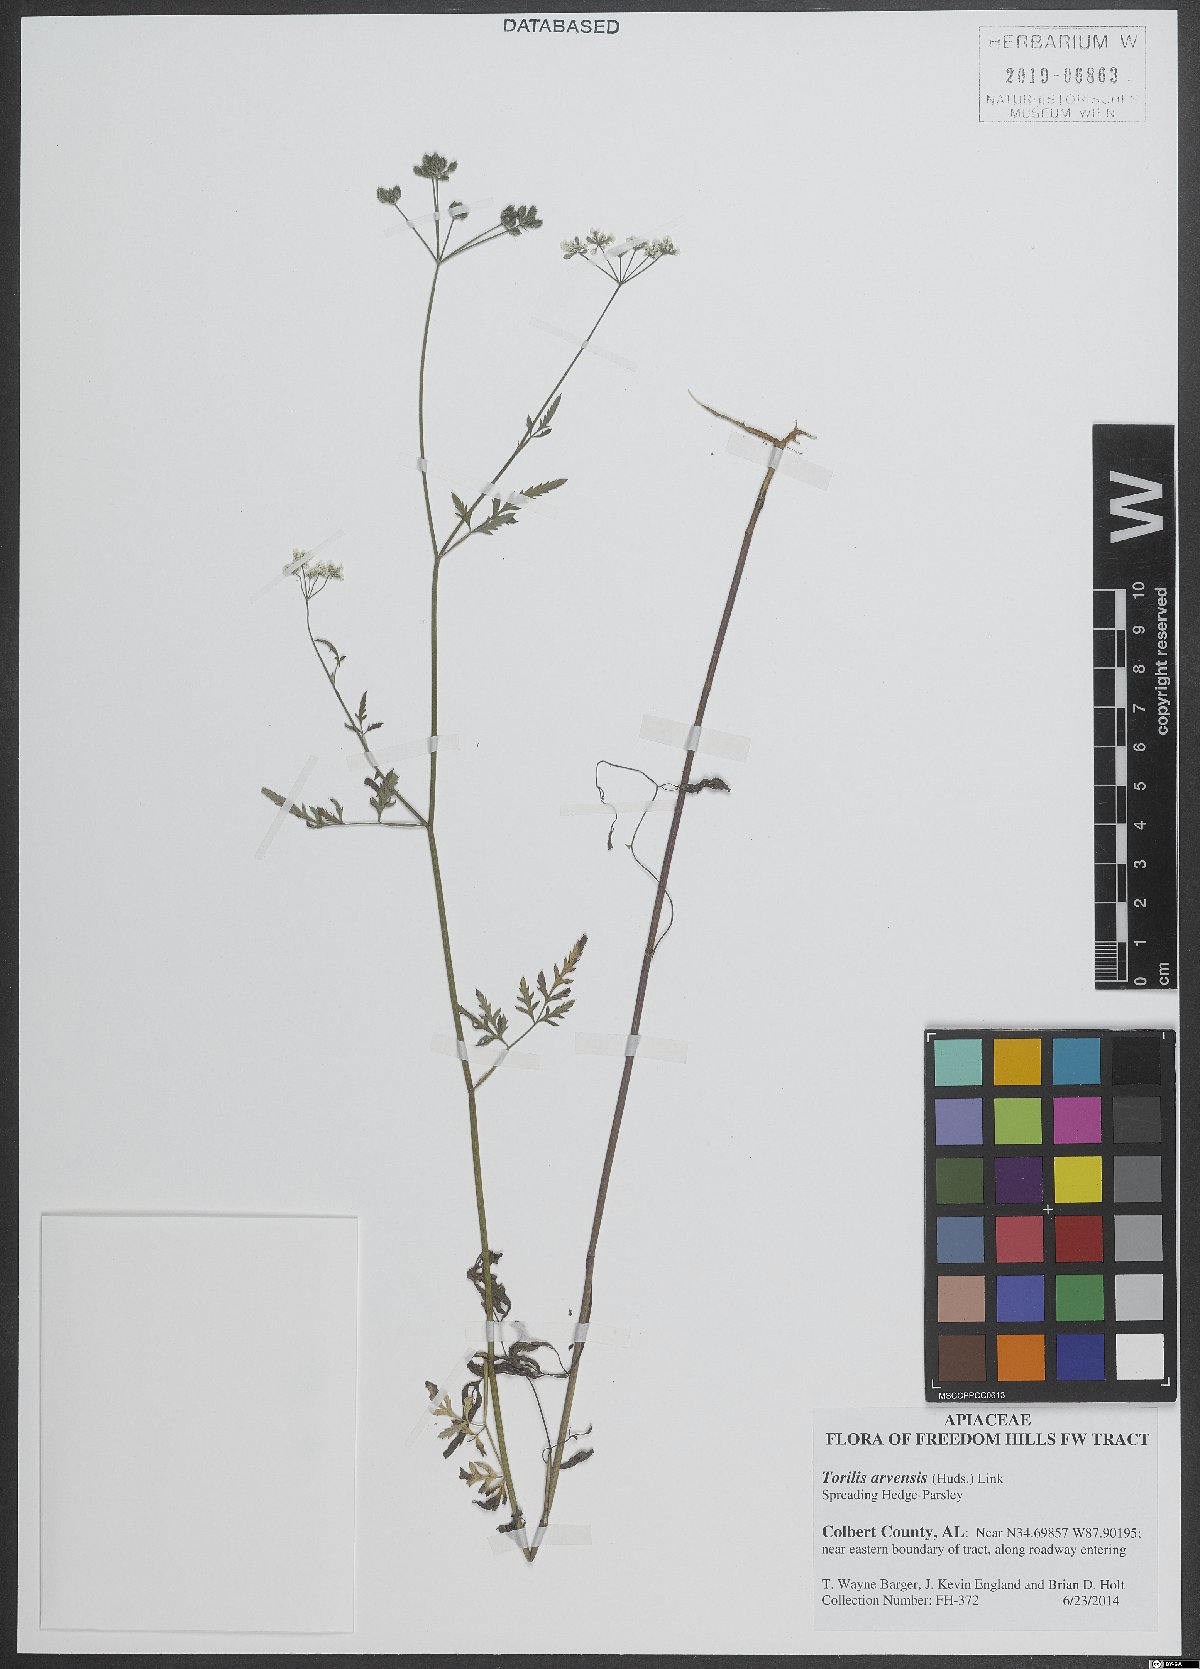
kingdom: Plantae
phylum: Tracheophyta
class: Magnoliopsida
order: Apiales
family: Apiaceae
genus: Torilis
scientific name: Torilis arvensis
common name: Spreading hedge-parsley
